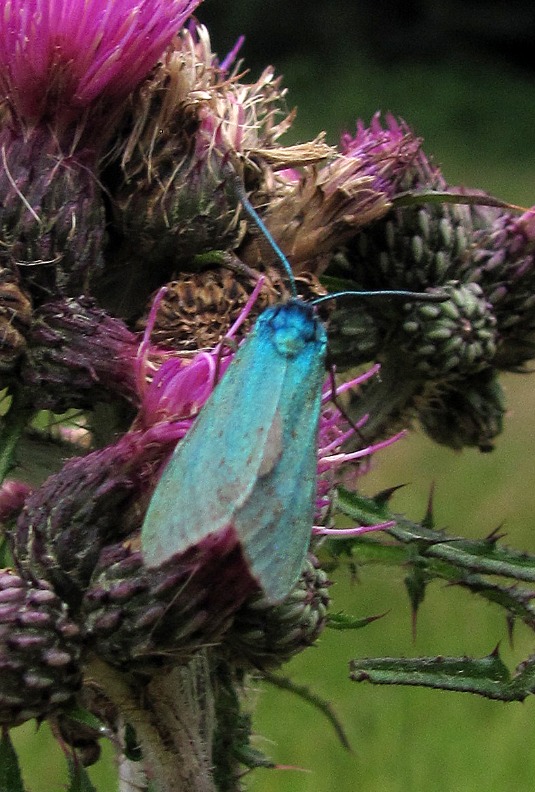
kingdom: Animalia
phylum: Arthropoda
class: Insecta
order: Lepidoptera
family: Zygaenidae
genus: Adscita
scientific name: Adscita statices
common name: Metalvinge
